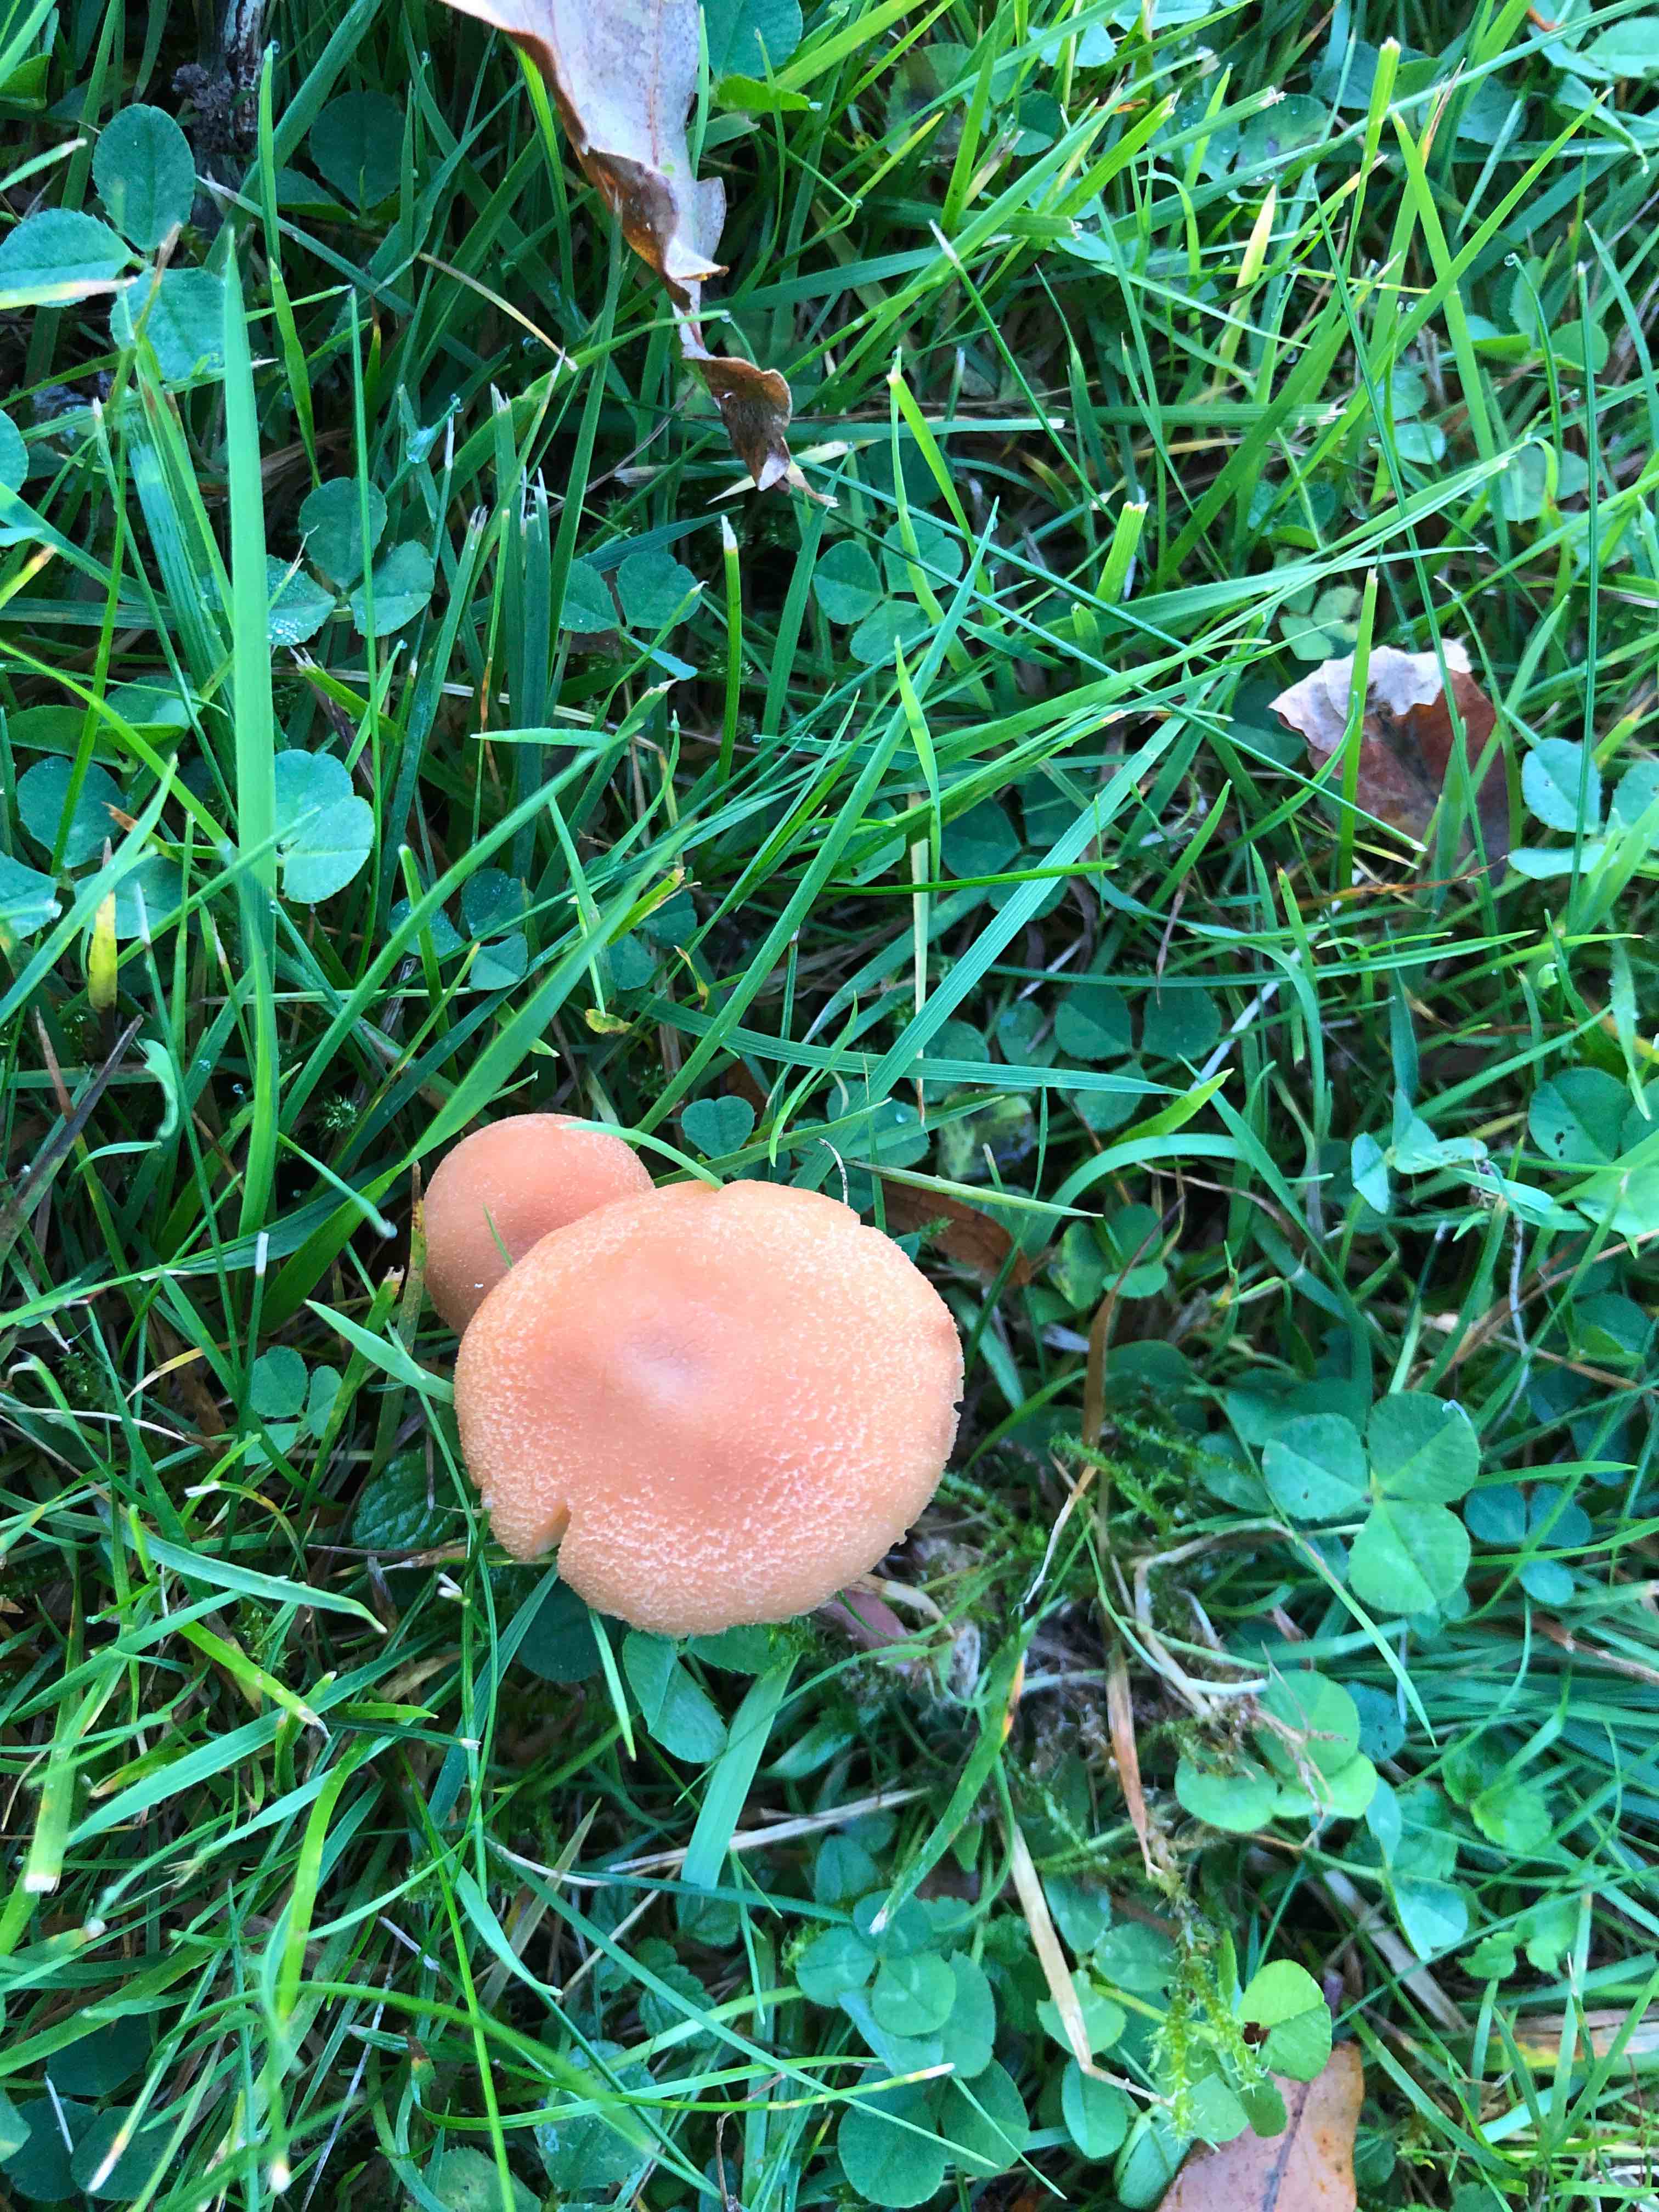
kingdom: Fungi
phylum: Basidiomycota
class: Agaricomycetes
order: Agaricales
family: Hydnangiaceae
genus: Laccaria
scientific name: Laccaria proxima
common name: stor ametysthat
